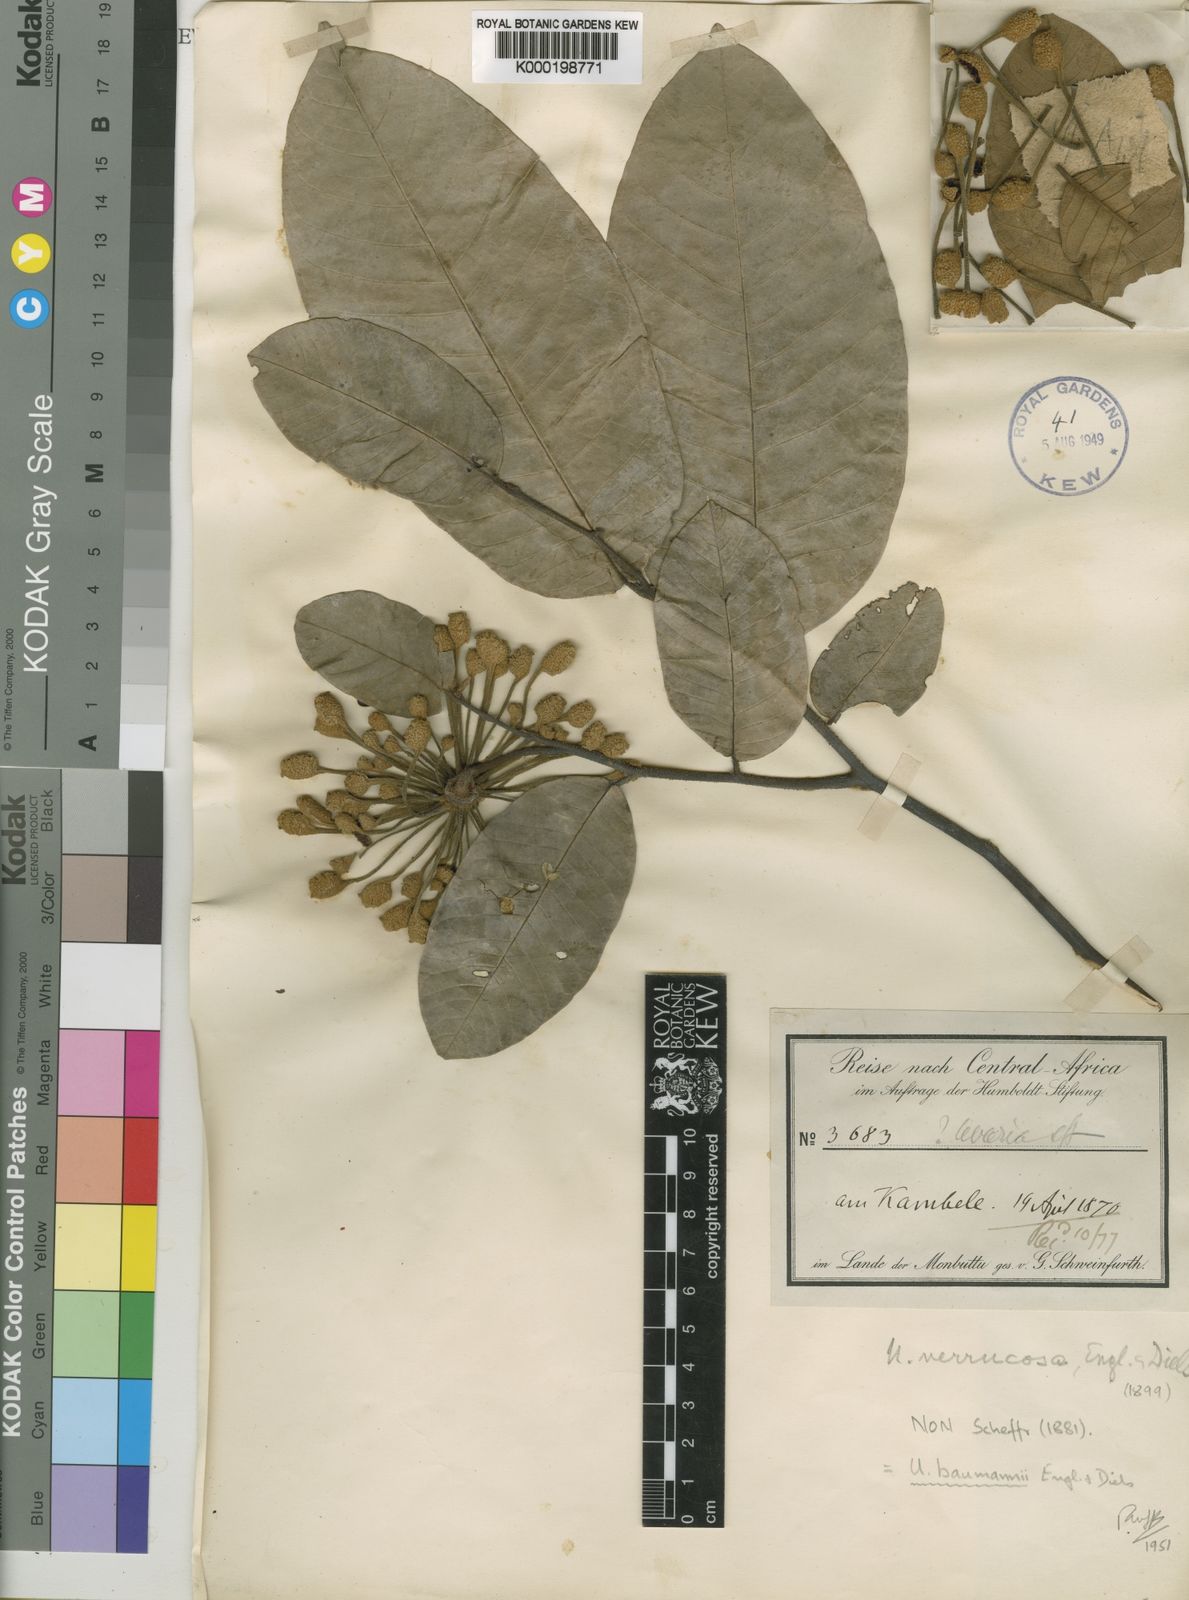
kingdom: Plantae
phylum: Tracheophyta
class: Magnoliopsida
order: Magnoliales
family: Annonaceae
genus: Uvaria
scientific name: Uvaria baumannii
